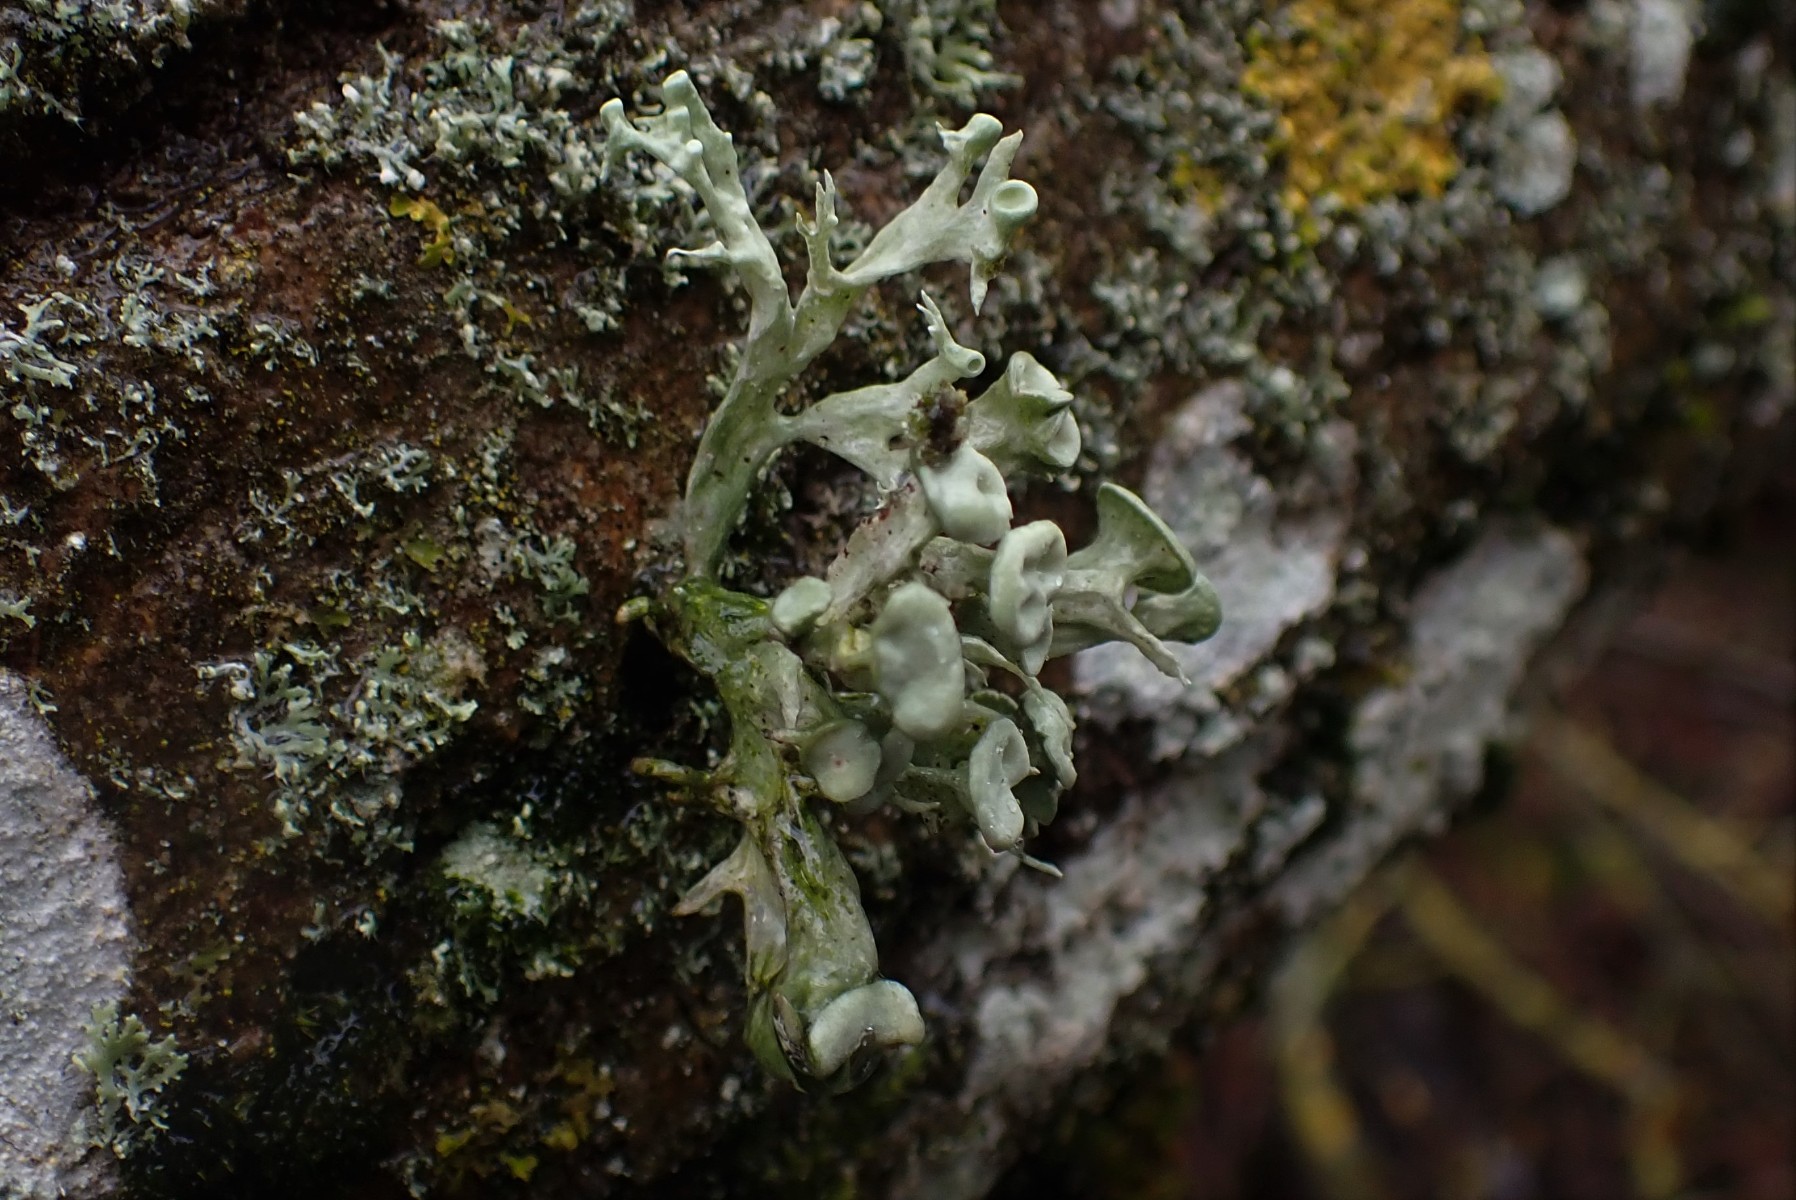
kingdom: Fungi
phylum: Ascomycota
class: Lecanoromycetes
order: Lecanorales
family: Ramalinaceae
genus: Ramalina
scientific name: Ramalina fastigiata
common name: tue-grenlav
